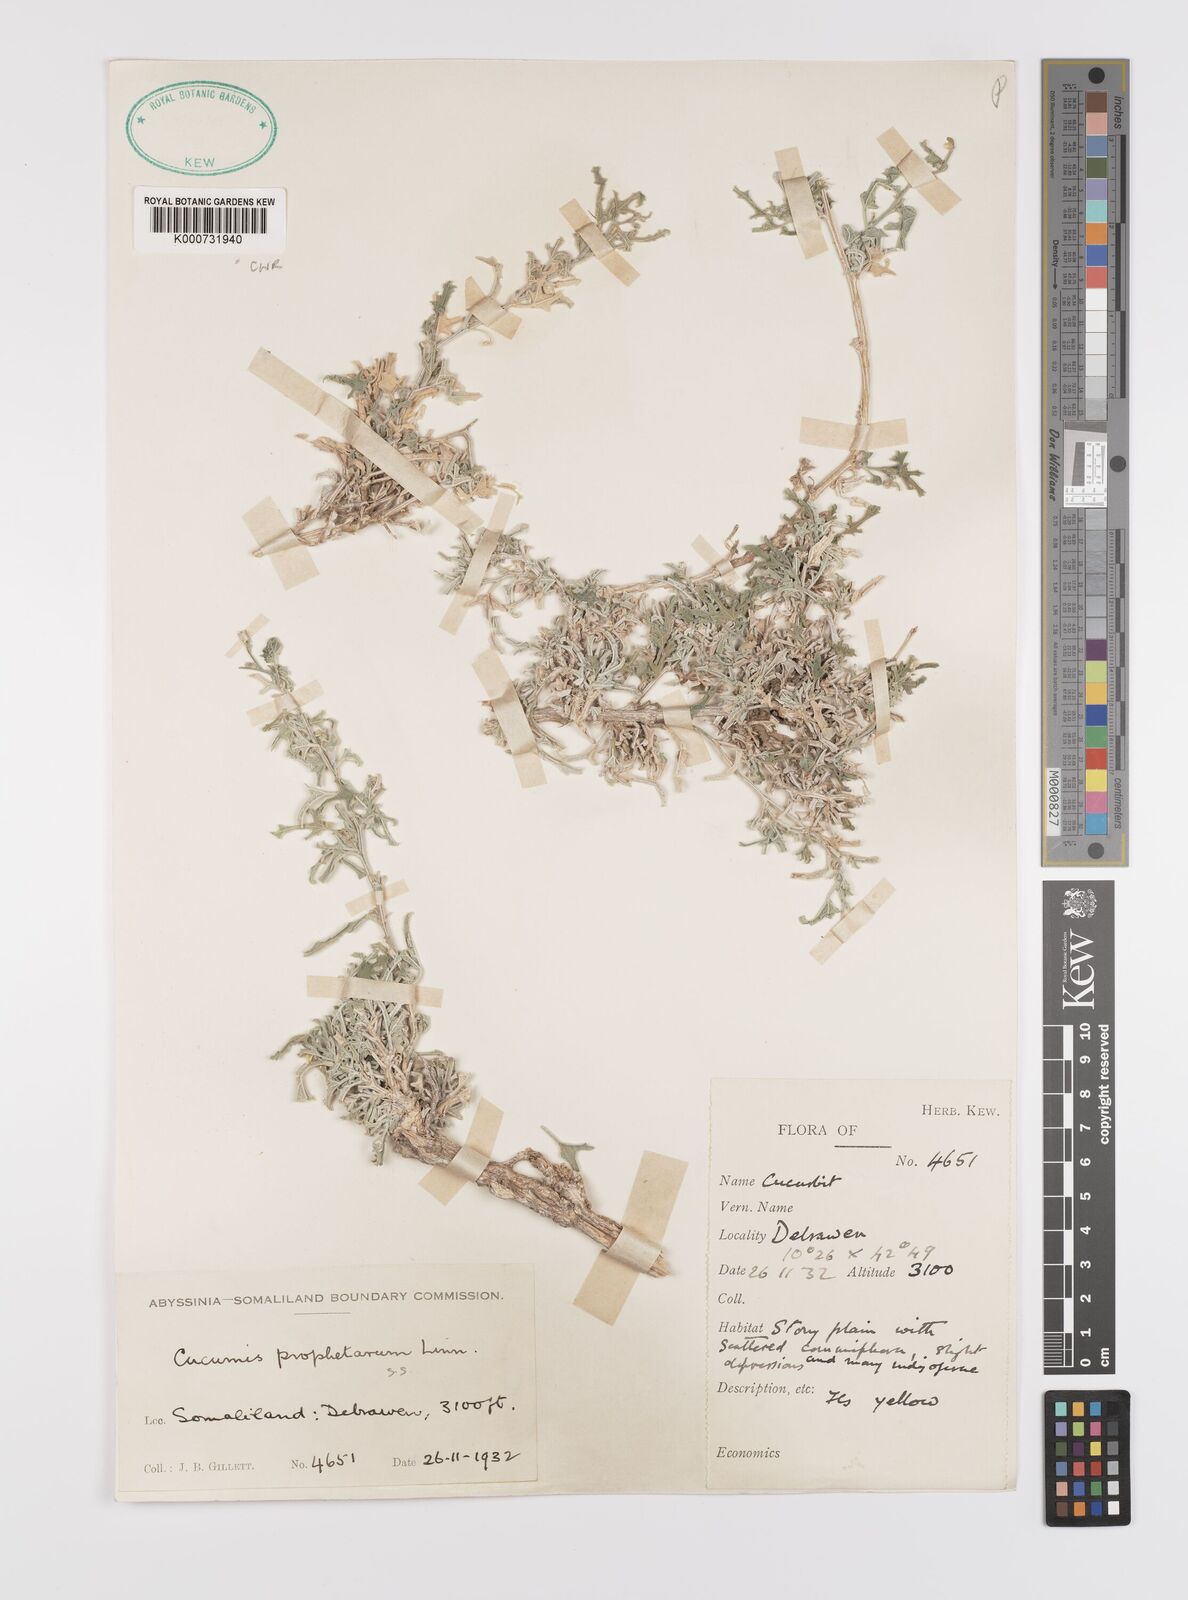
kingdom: Plantae
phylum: Tracheophyta
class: Magnoliopsida
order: Cucurbitales
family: Cucurbitaceae
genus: Cucumis
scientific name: Cucumis prophetarum
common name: Wild cucumber
